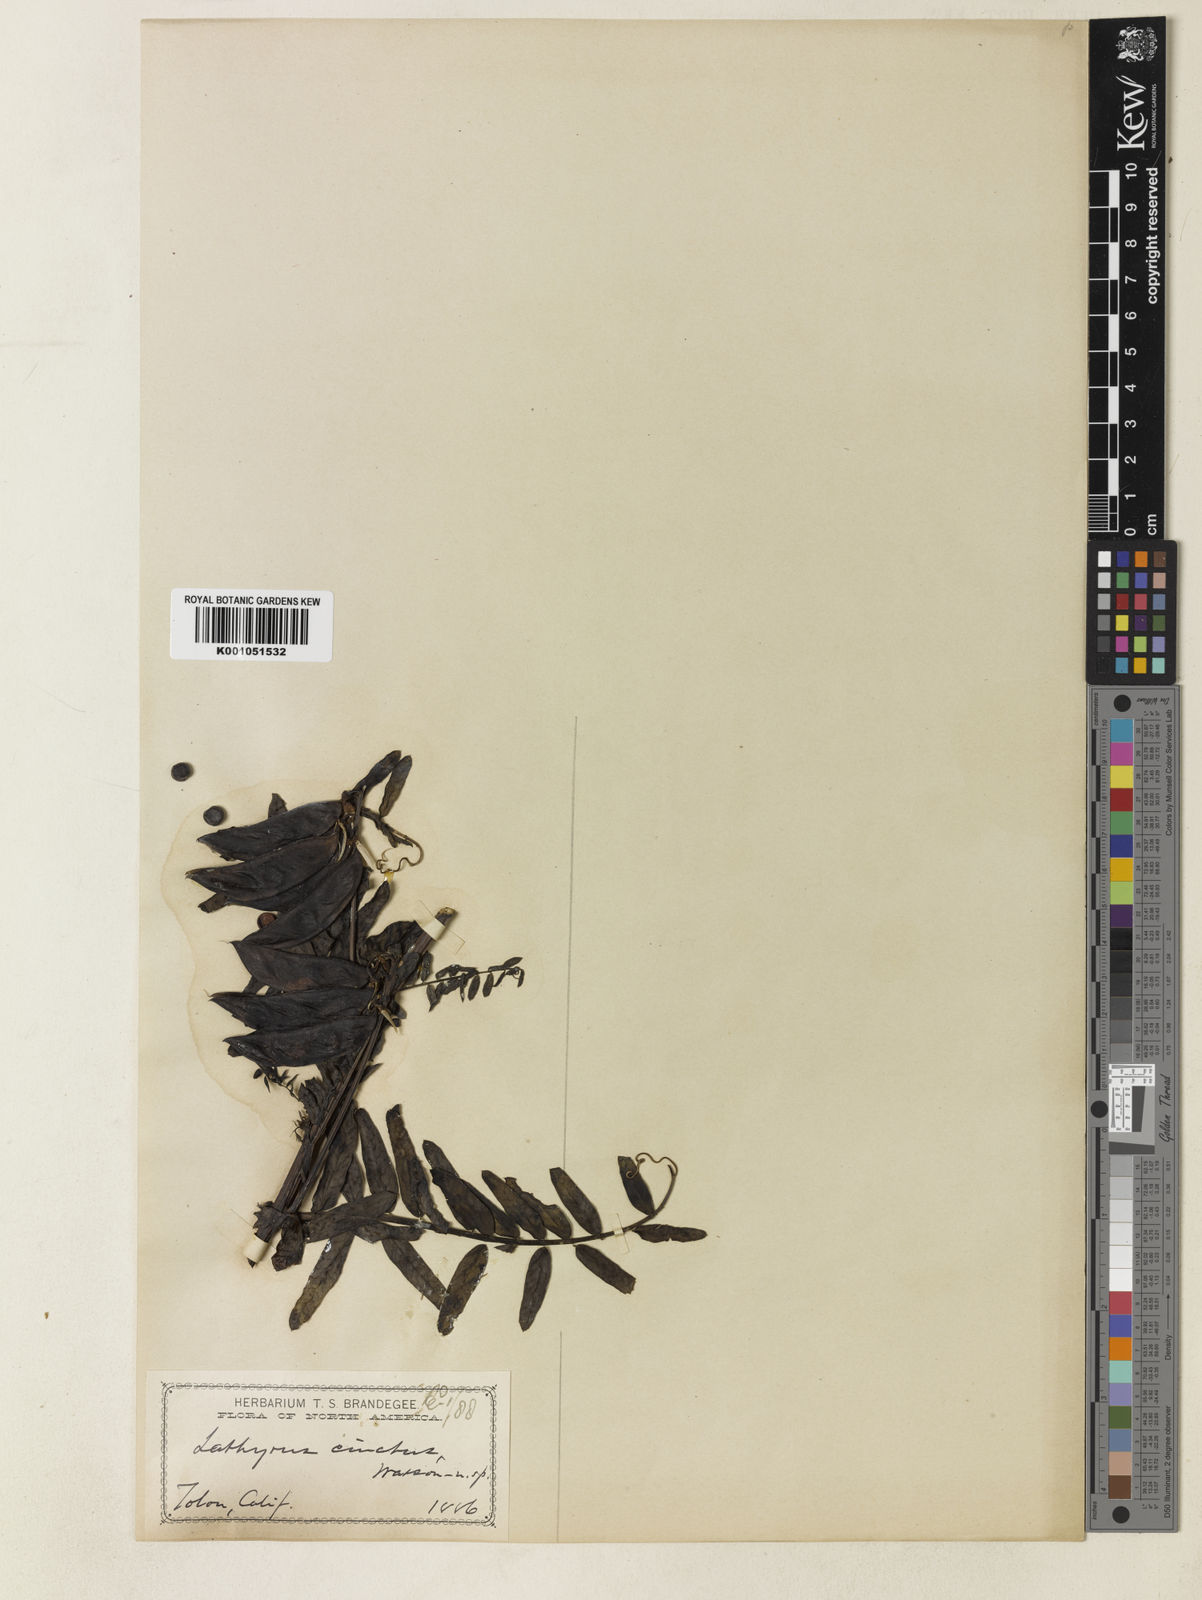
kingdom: Plantae
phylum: Tracheophyta
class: Magnoliopsida
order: Fabales
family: Fabaceae
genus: Vicia
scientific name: Vicia nigricans
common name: Black vetch
